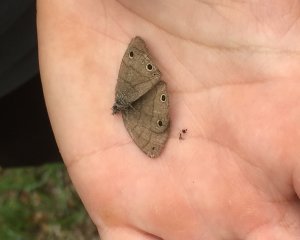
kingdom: Animalia
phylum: Arthropoda
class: Insecta
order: Lepidoptera
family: Nymphalidae
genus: Hermeuptychia
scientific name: Hermeuptychia hermes
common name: Carolina Satyr
